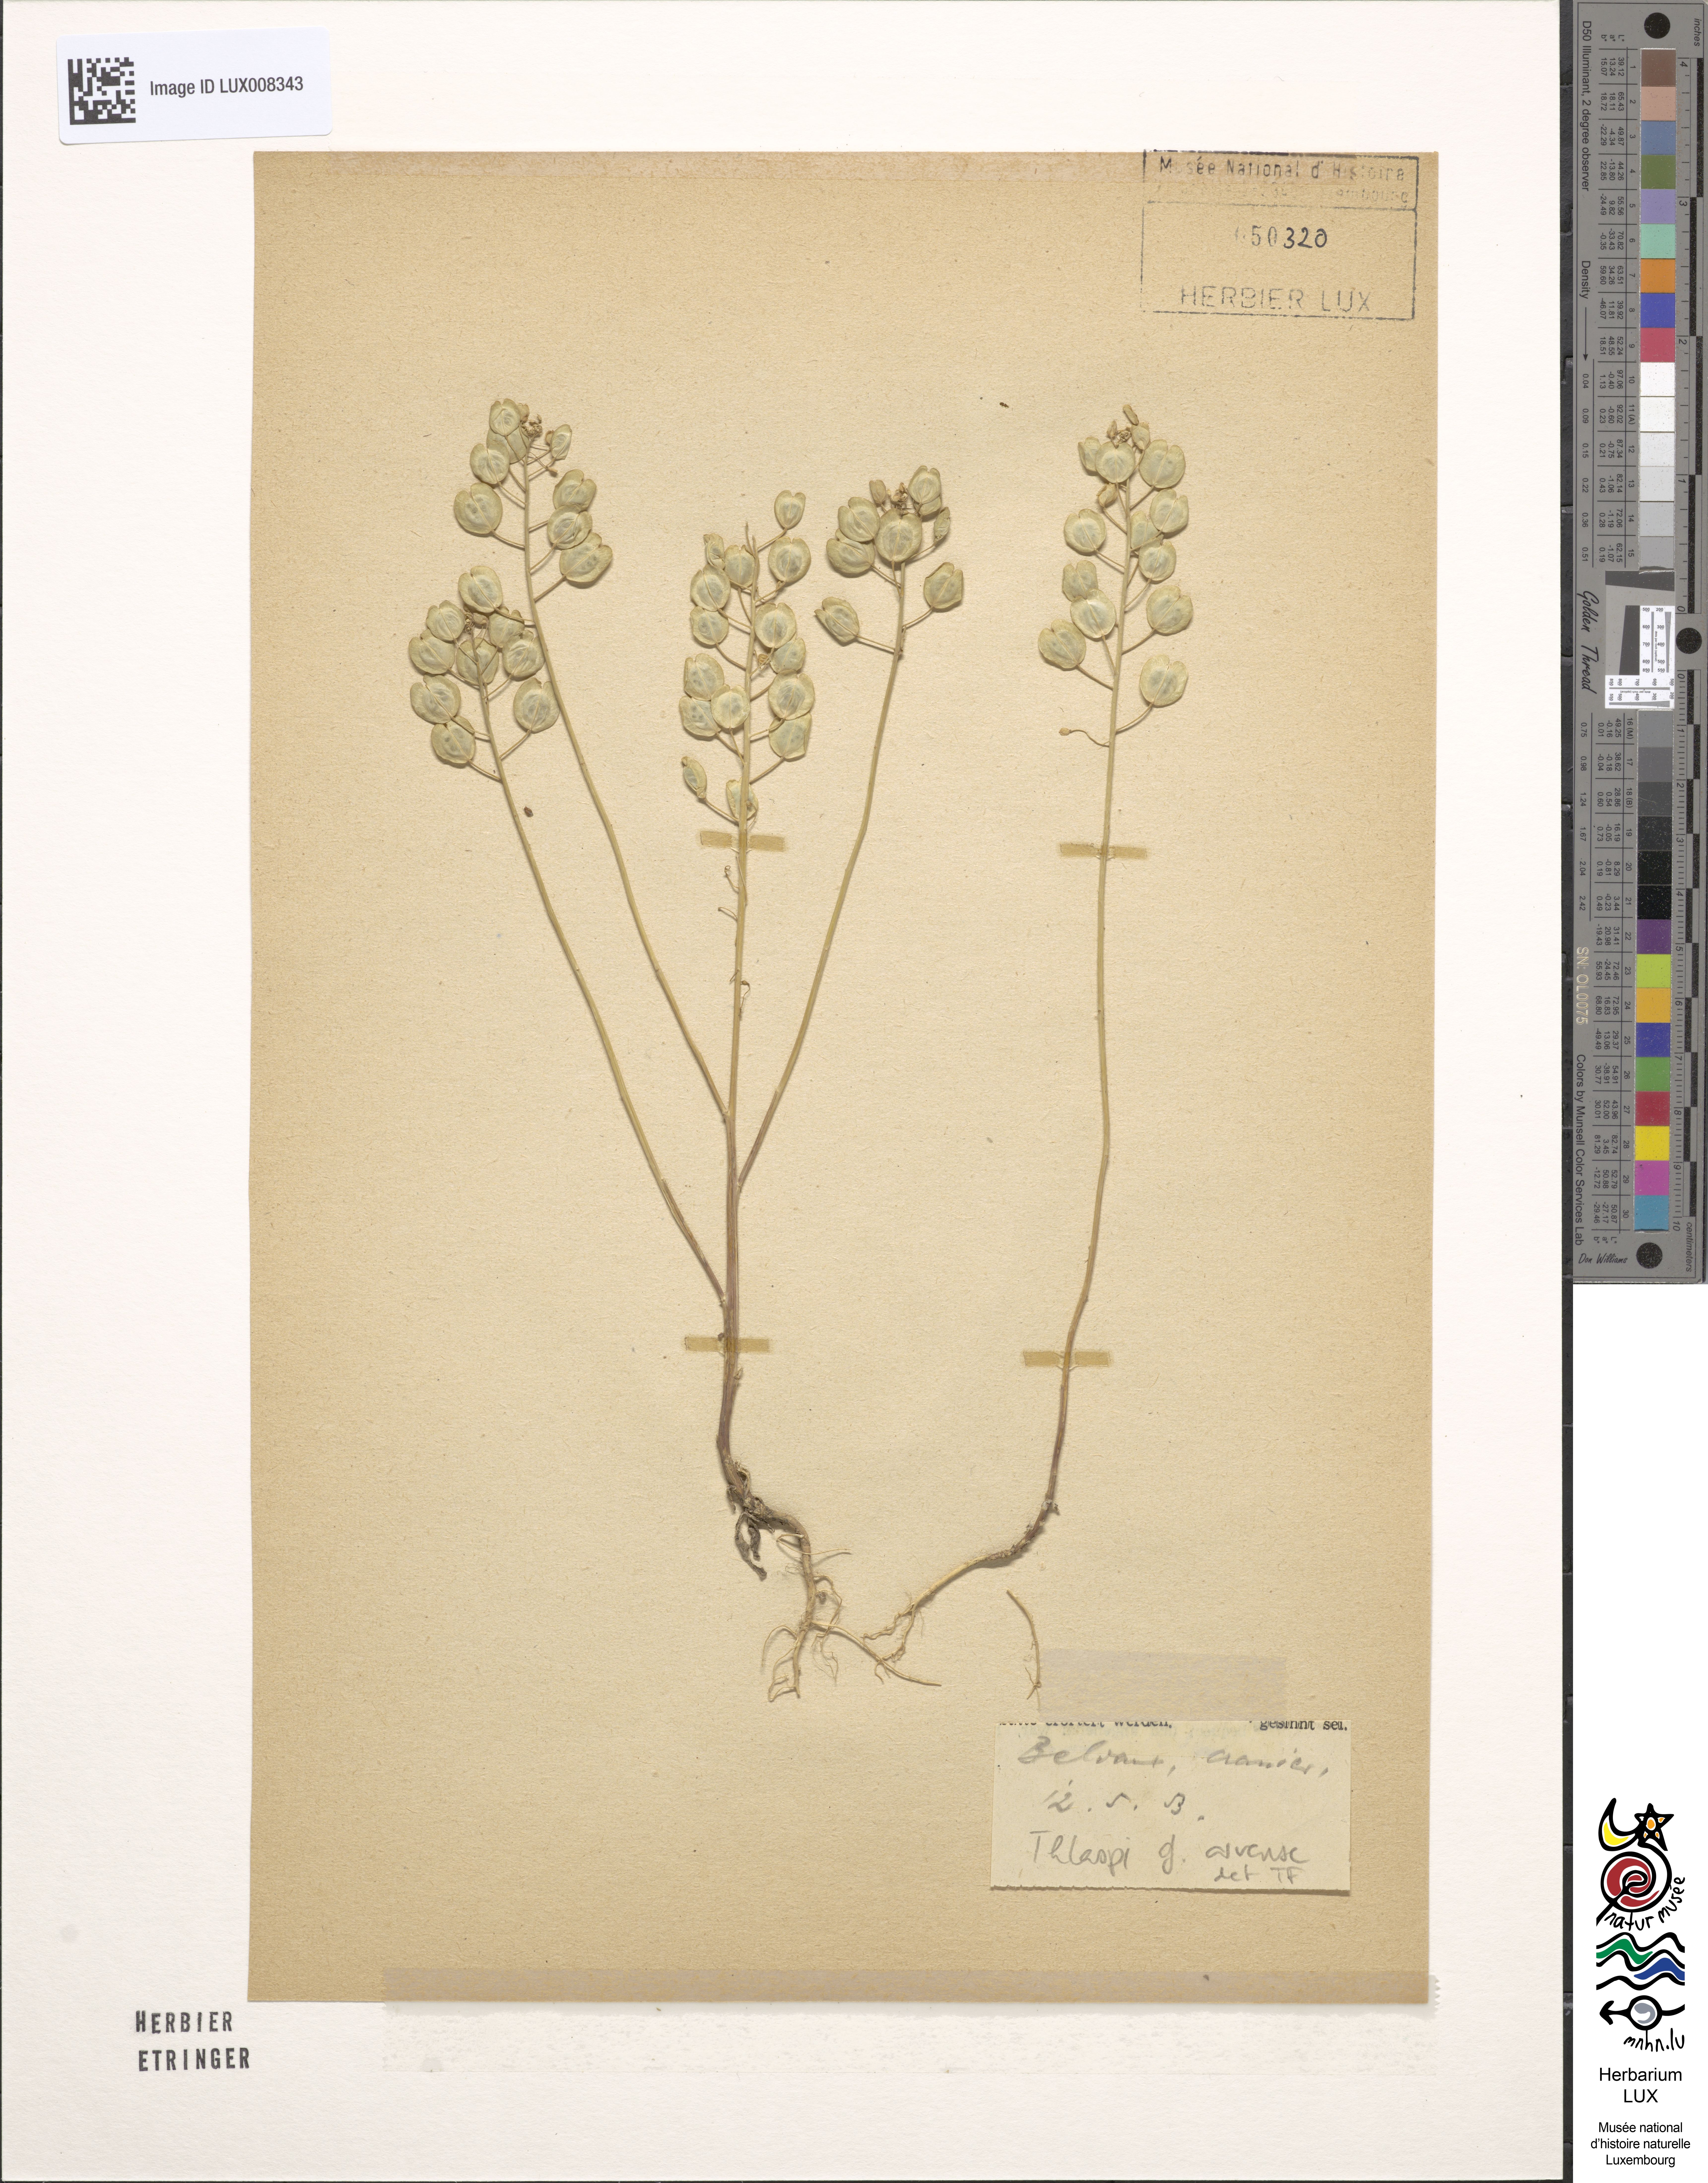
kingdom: Plantae
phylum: Tracheophyta
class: Magnoliopsida
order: Brassicales
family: Brassicaceae
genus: Thlaspi
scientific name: Thlaspi arvense
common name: Field pennycress
